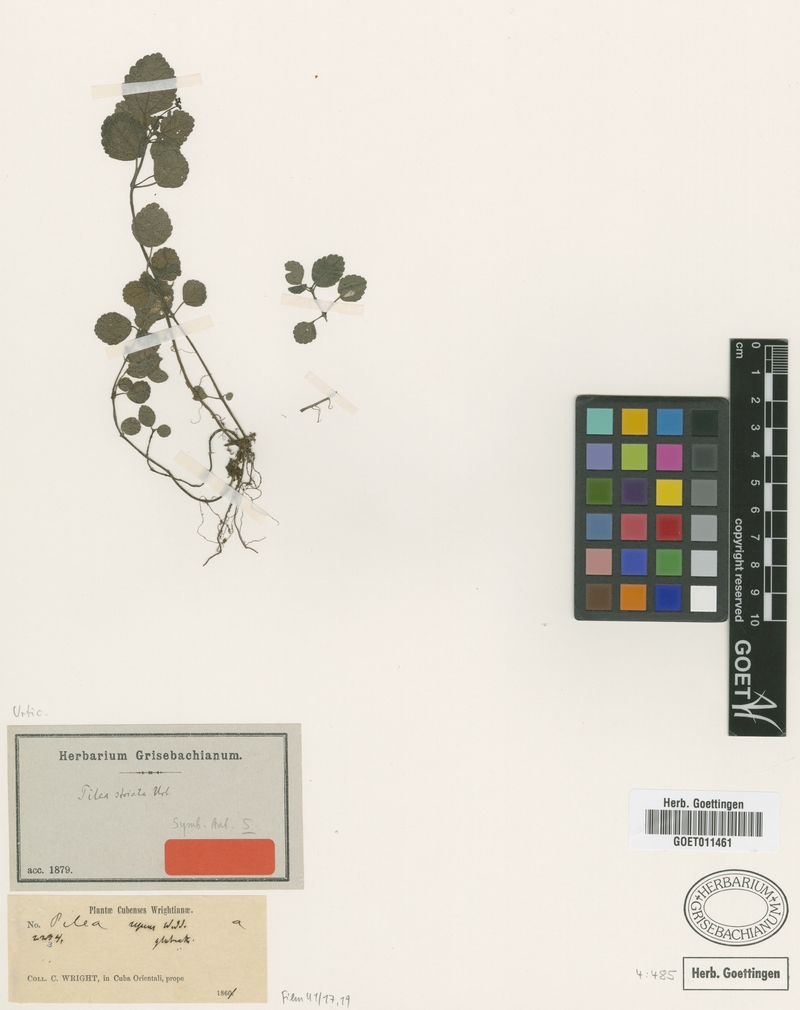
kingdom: Plantae
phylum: Tracheophyta
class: Magnoliopsida
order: Rosales
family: Urticaceae
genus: Pilea
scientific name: Pilea striata
